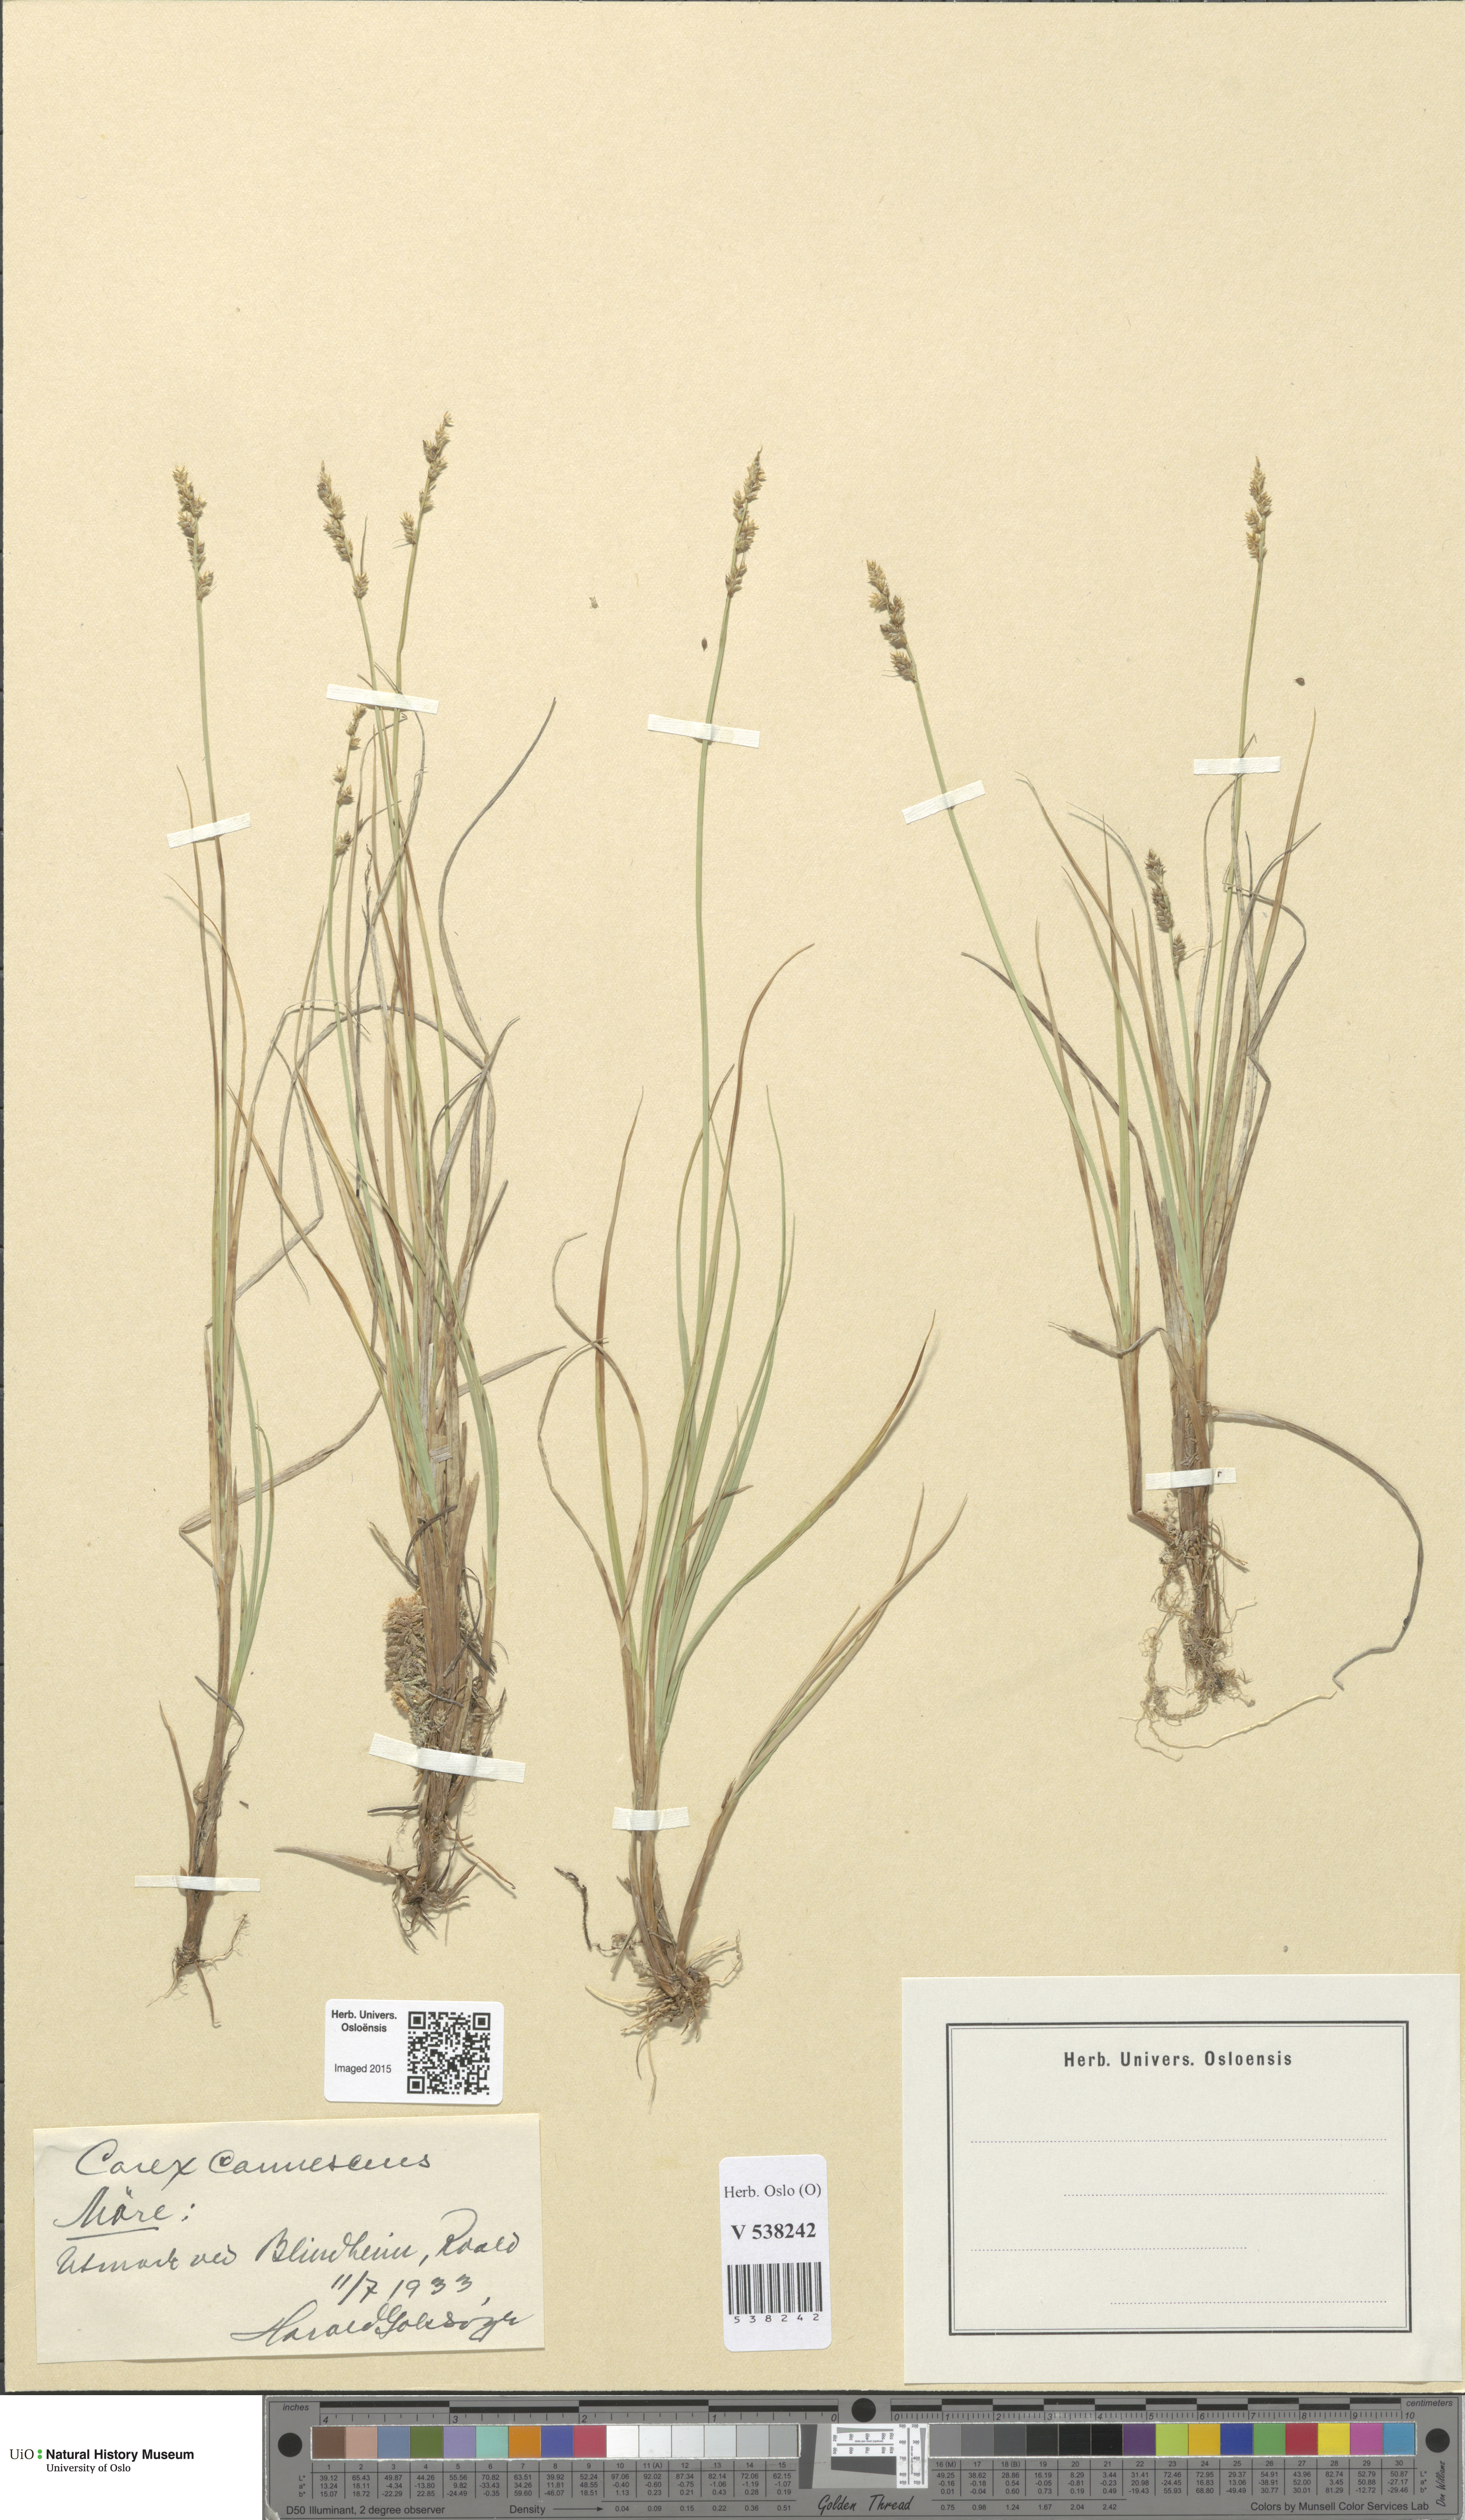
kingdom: Plantae
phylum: Tracheophyta
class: Liliopsida
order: Poales
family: Cyperaceae
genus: Carex
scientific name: Carex canescens
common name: White sedge
